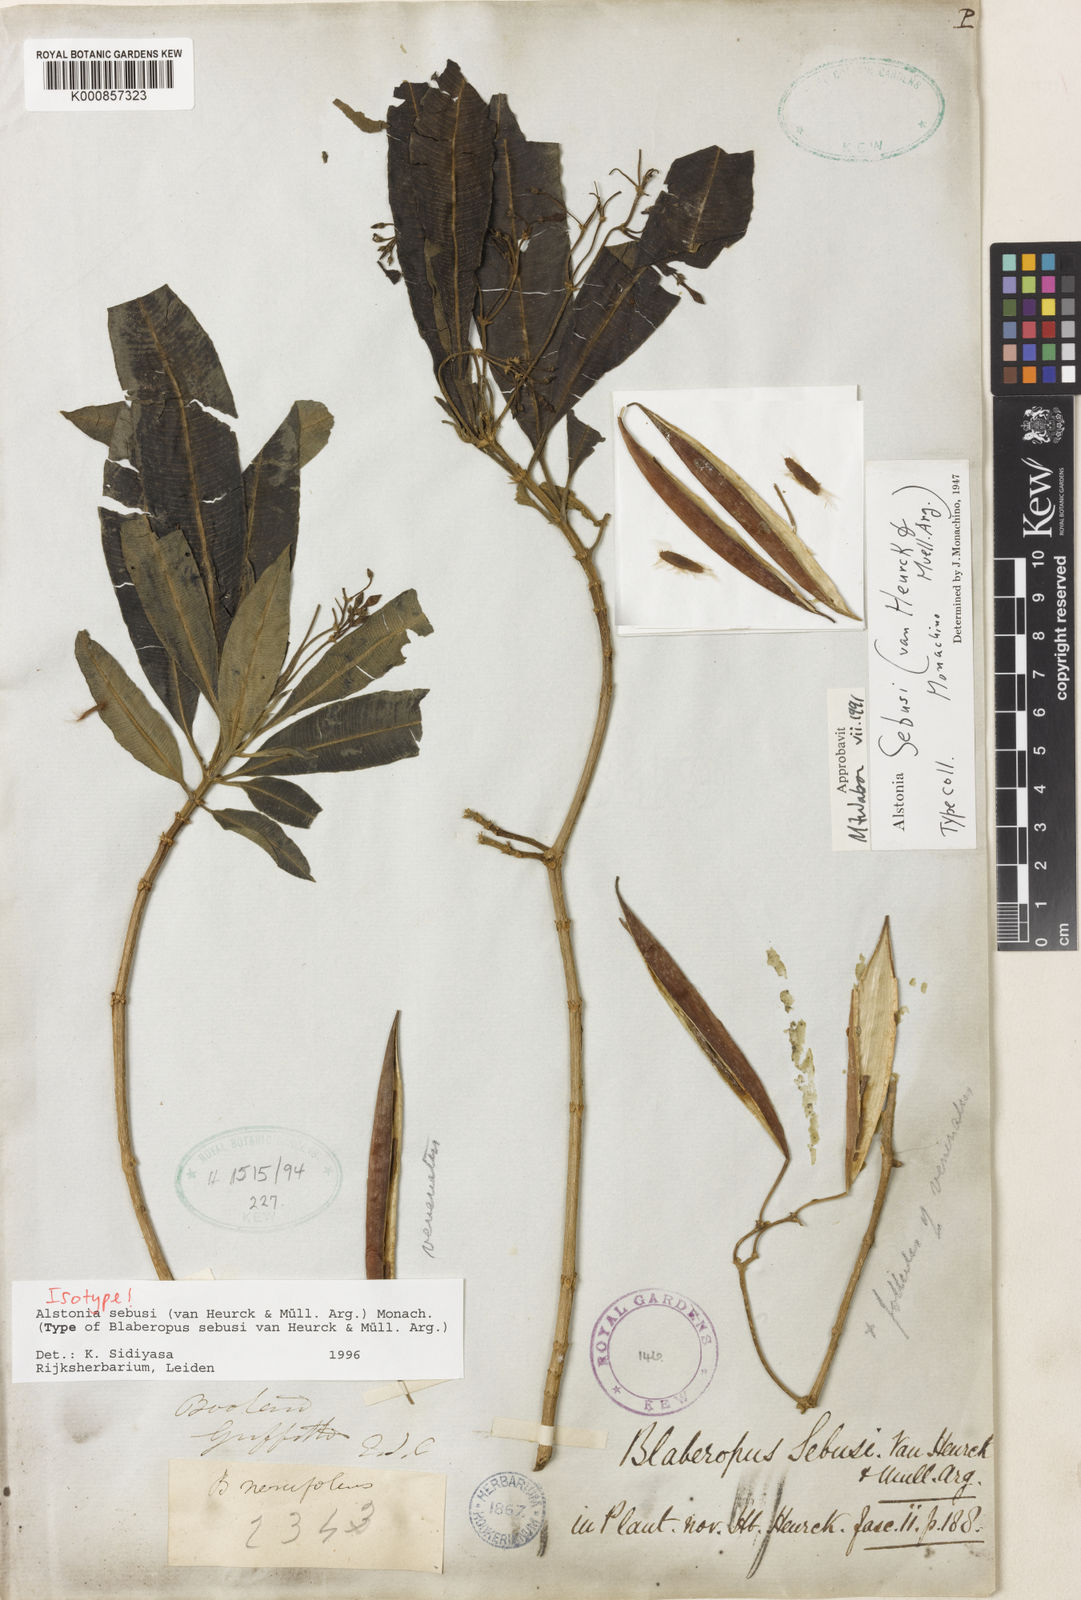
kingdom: Plantae
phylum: Tracheophyta
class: Magnoliopsida
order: Gentianales
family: Apocynaceae
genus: Alstonia
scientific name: Alstonia
